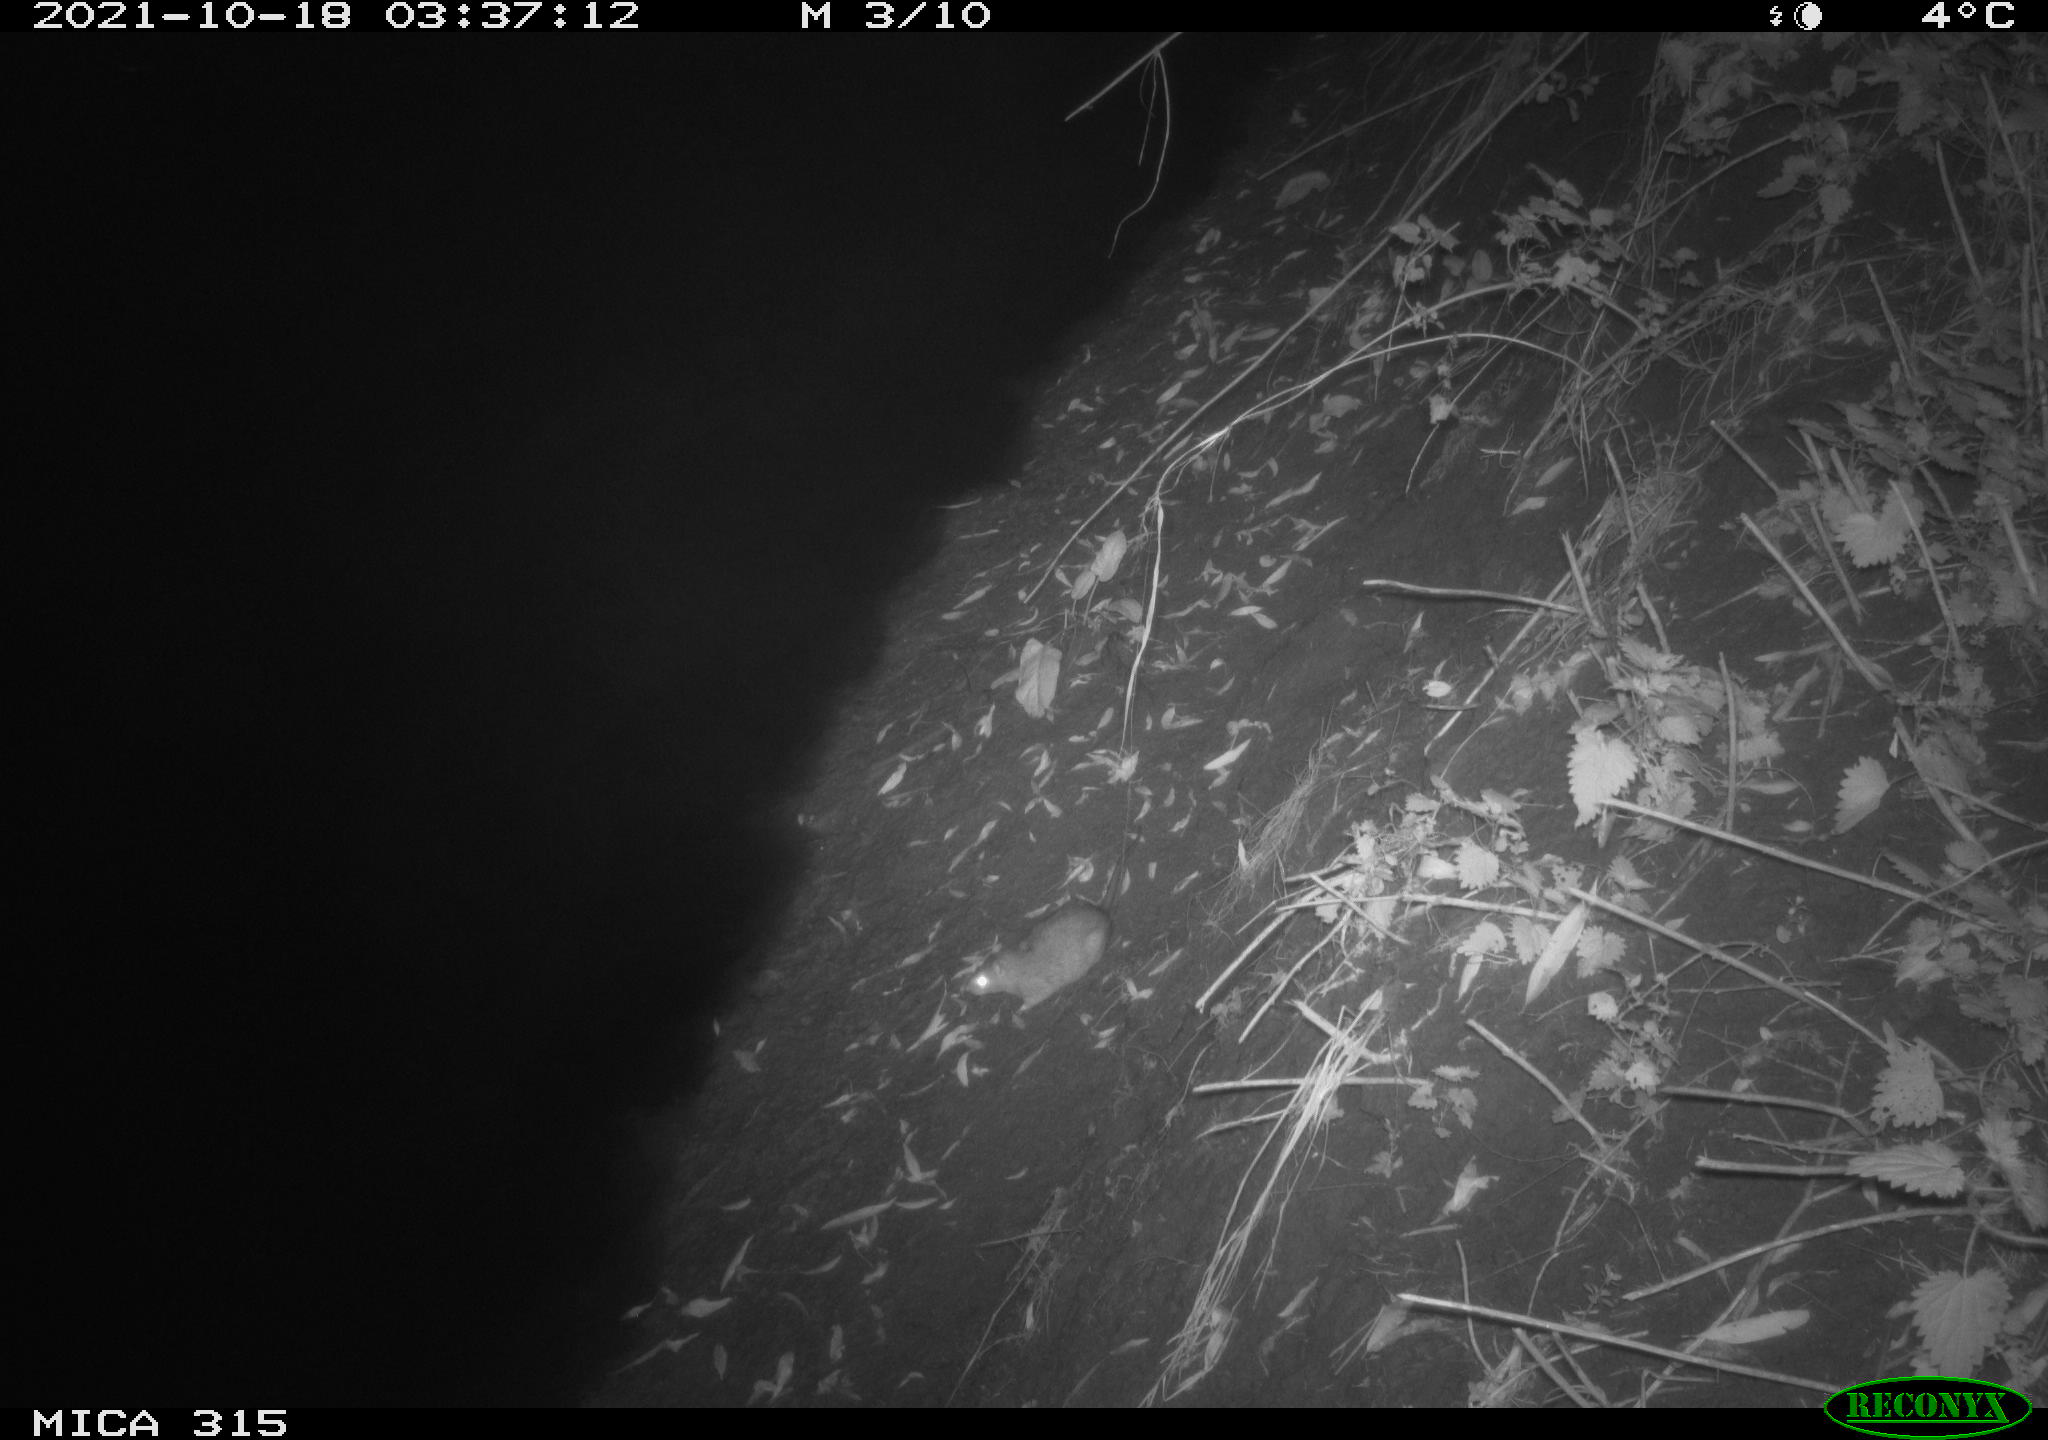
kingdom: Animalia
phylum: Chordata
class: Mammalia
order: Rodentia
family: Muridae
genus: Rattus
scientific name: Rattus norvegicus
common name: Brown rat
